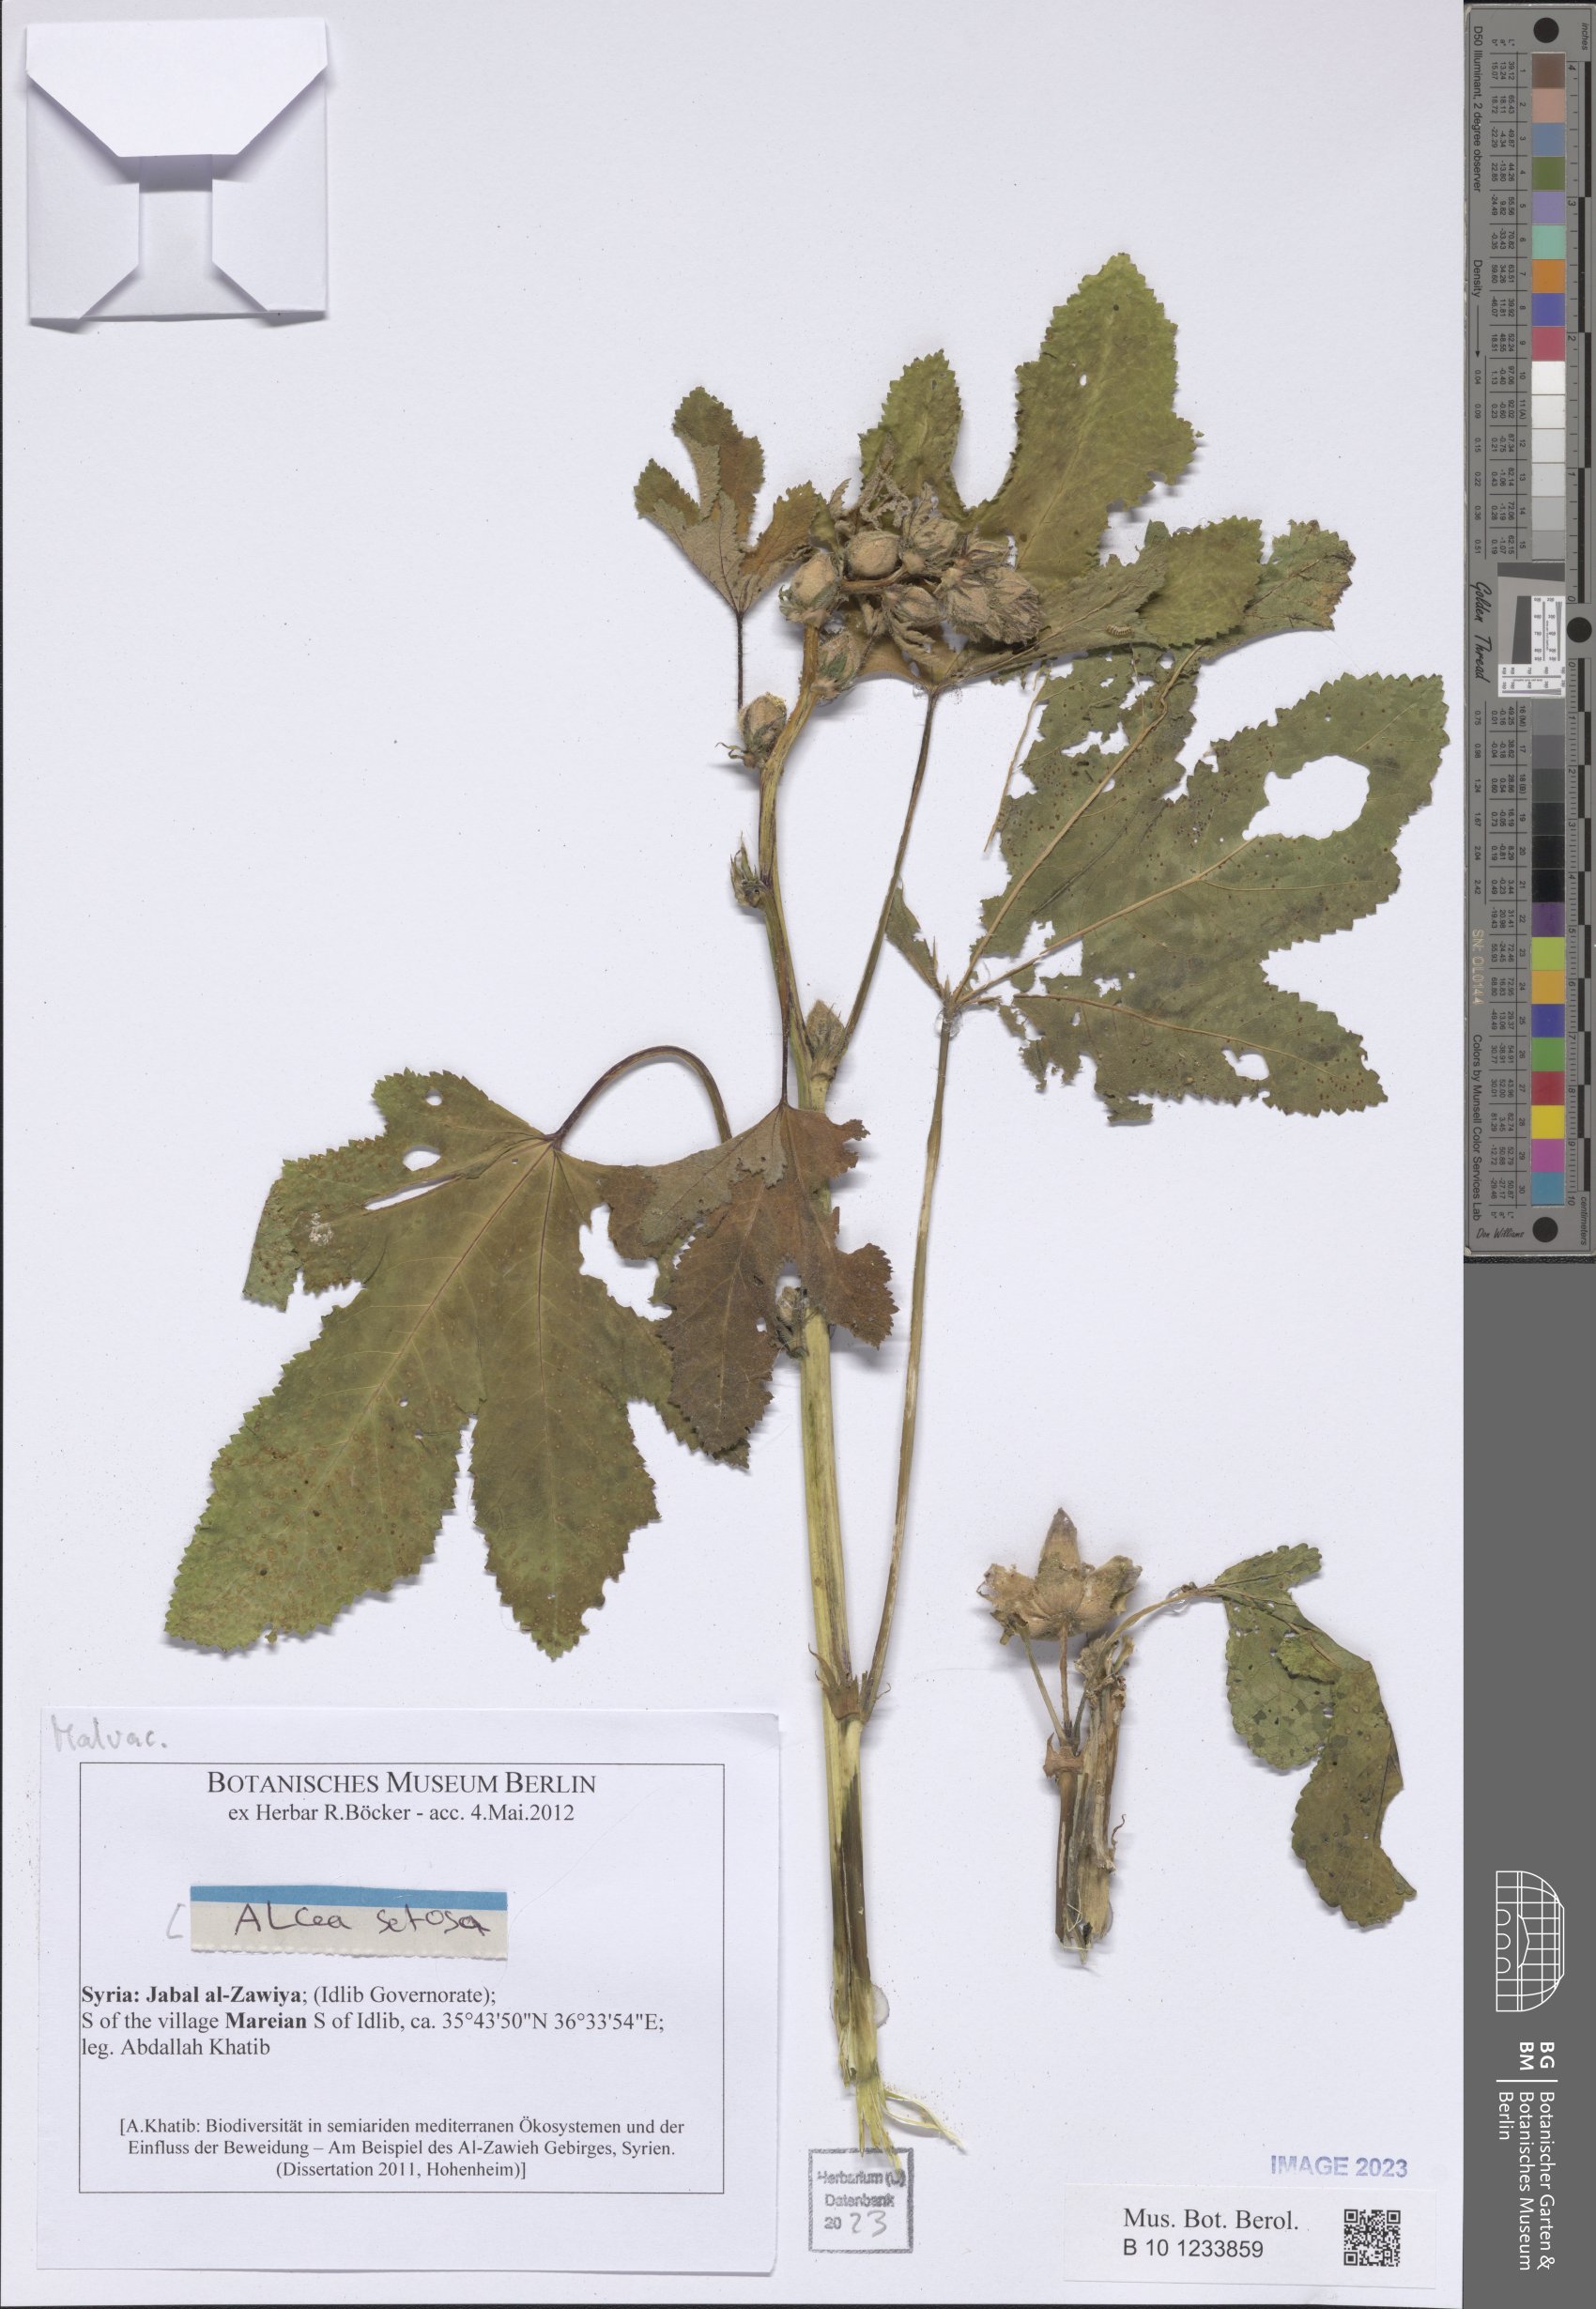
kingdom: Plantae
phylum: Tracheophyta
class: Magnoliopsida
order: Malvales
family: Malvaceae
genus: Alcea
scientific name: Alcea setosa
